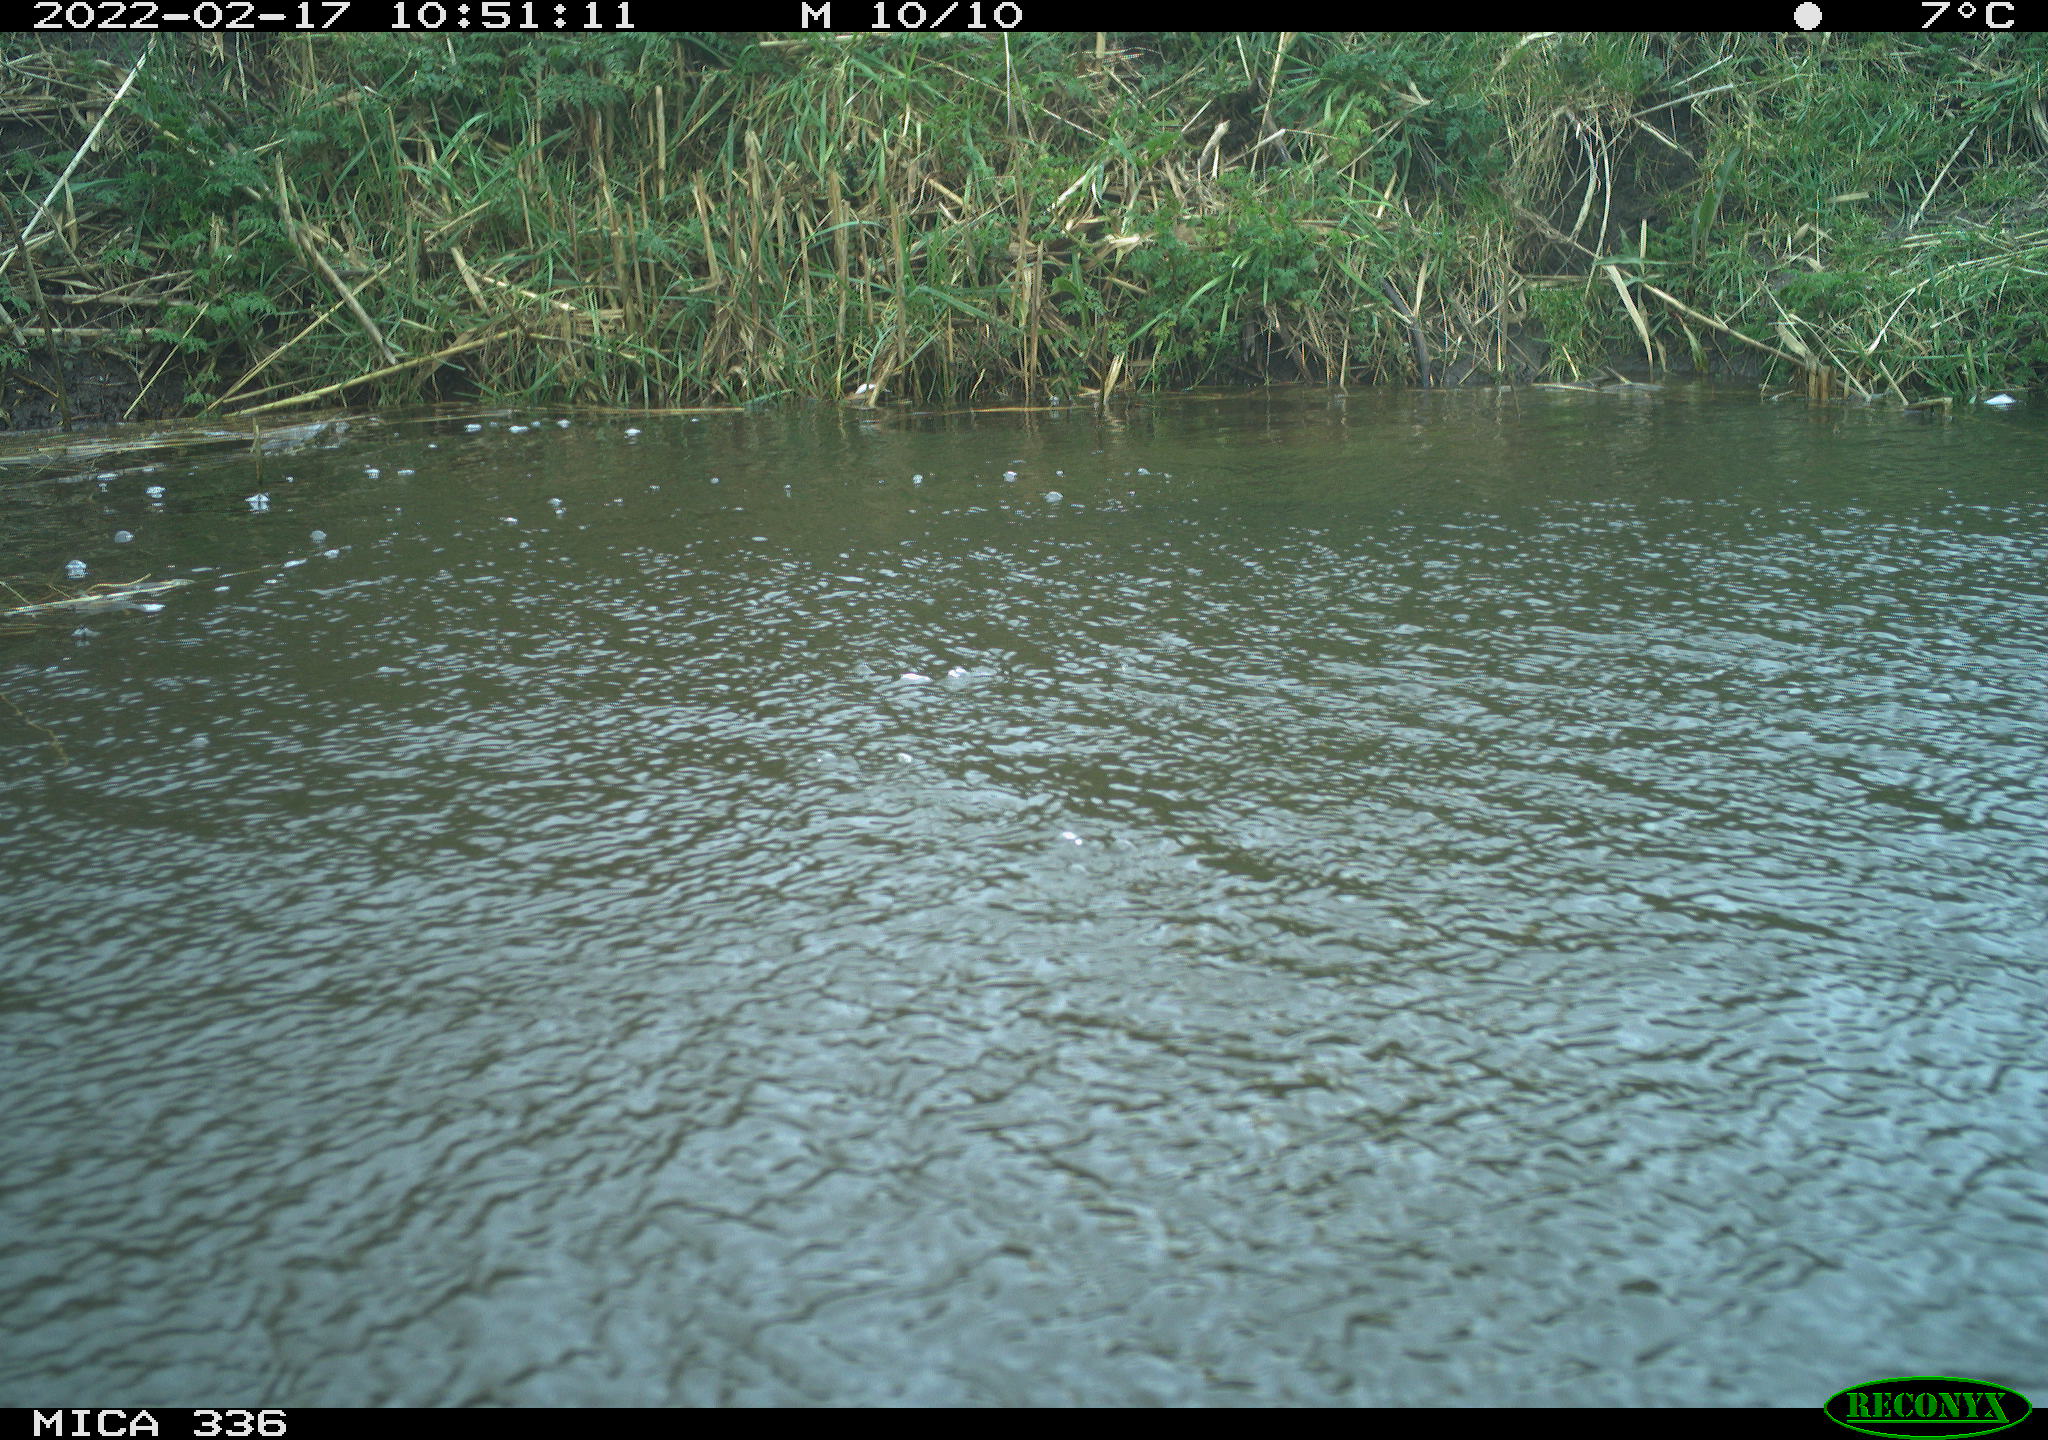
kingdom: Animalia
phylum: Chordata
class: Aves
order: Suliformes
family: Phalacrocoracidae
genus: Phalacrocorax
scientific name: Phalacrocorax carbo
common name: Great cormorant
